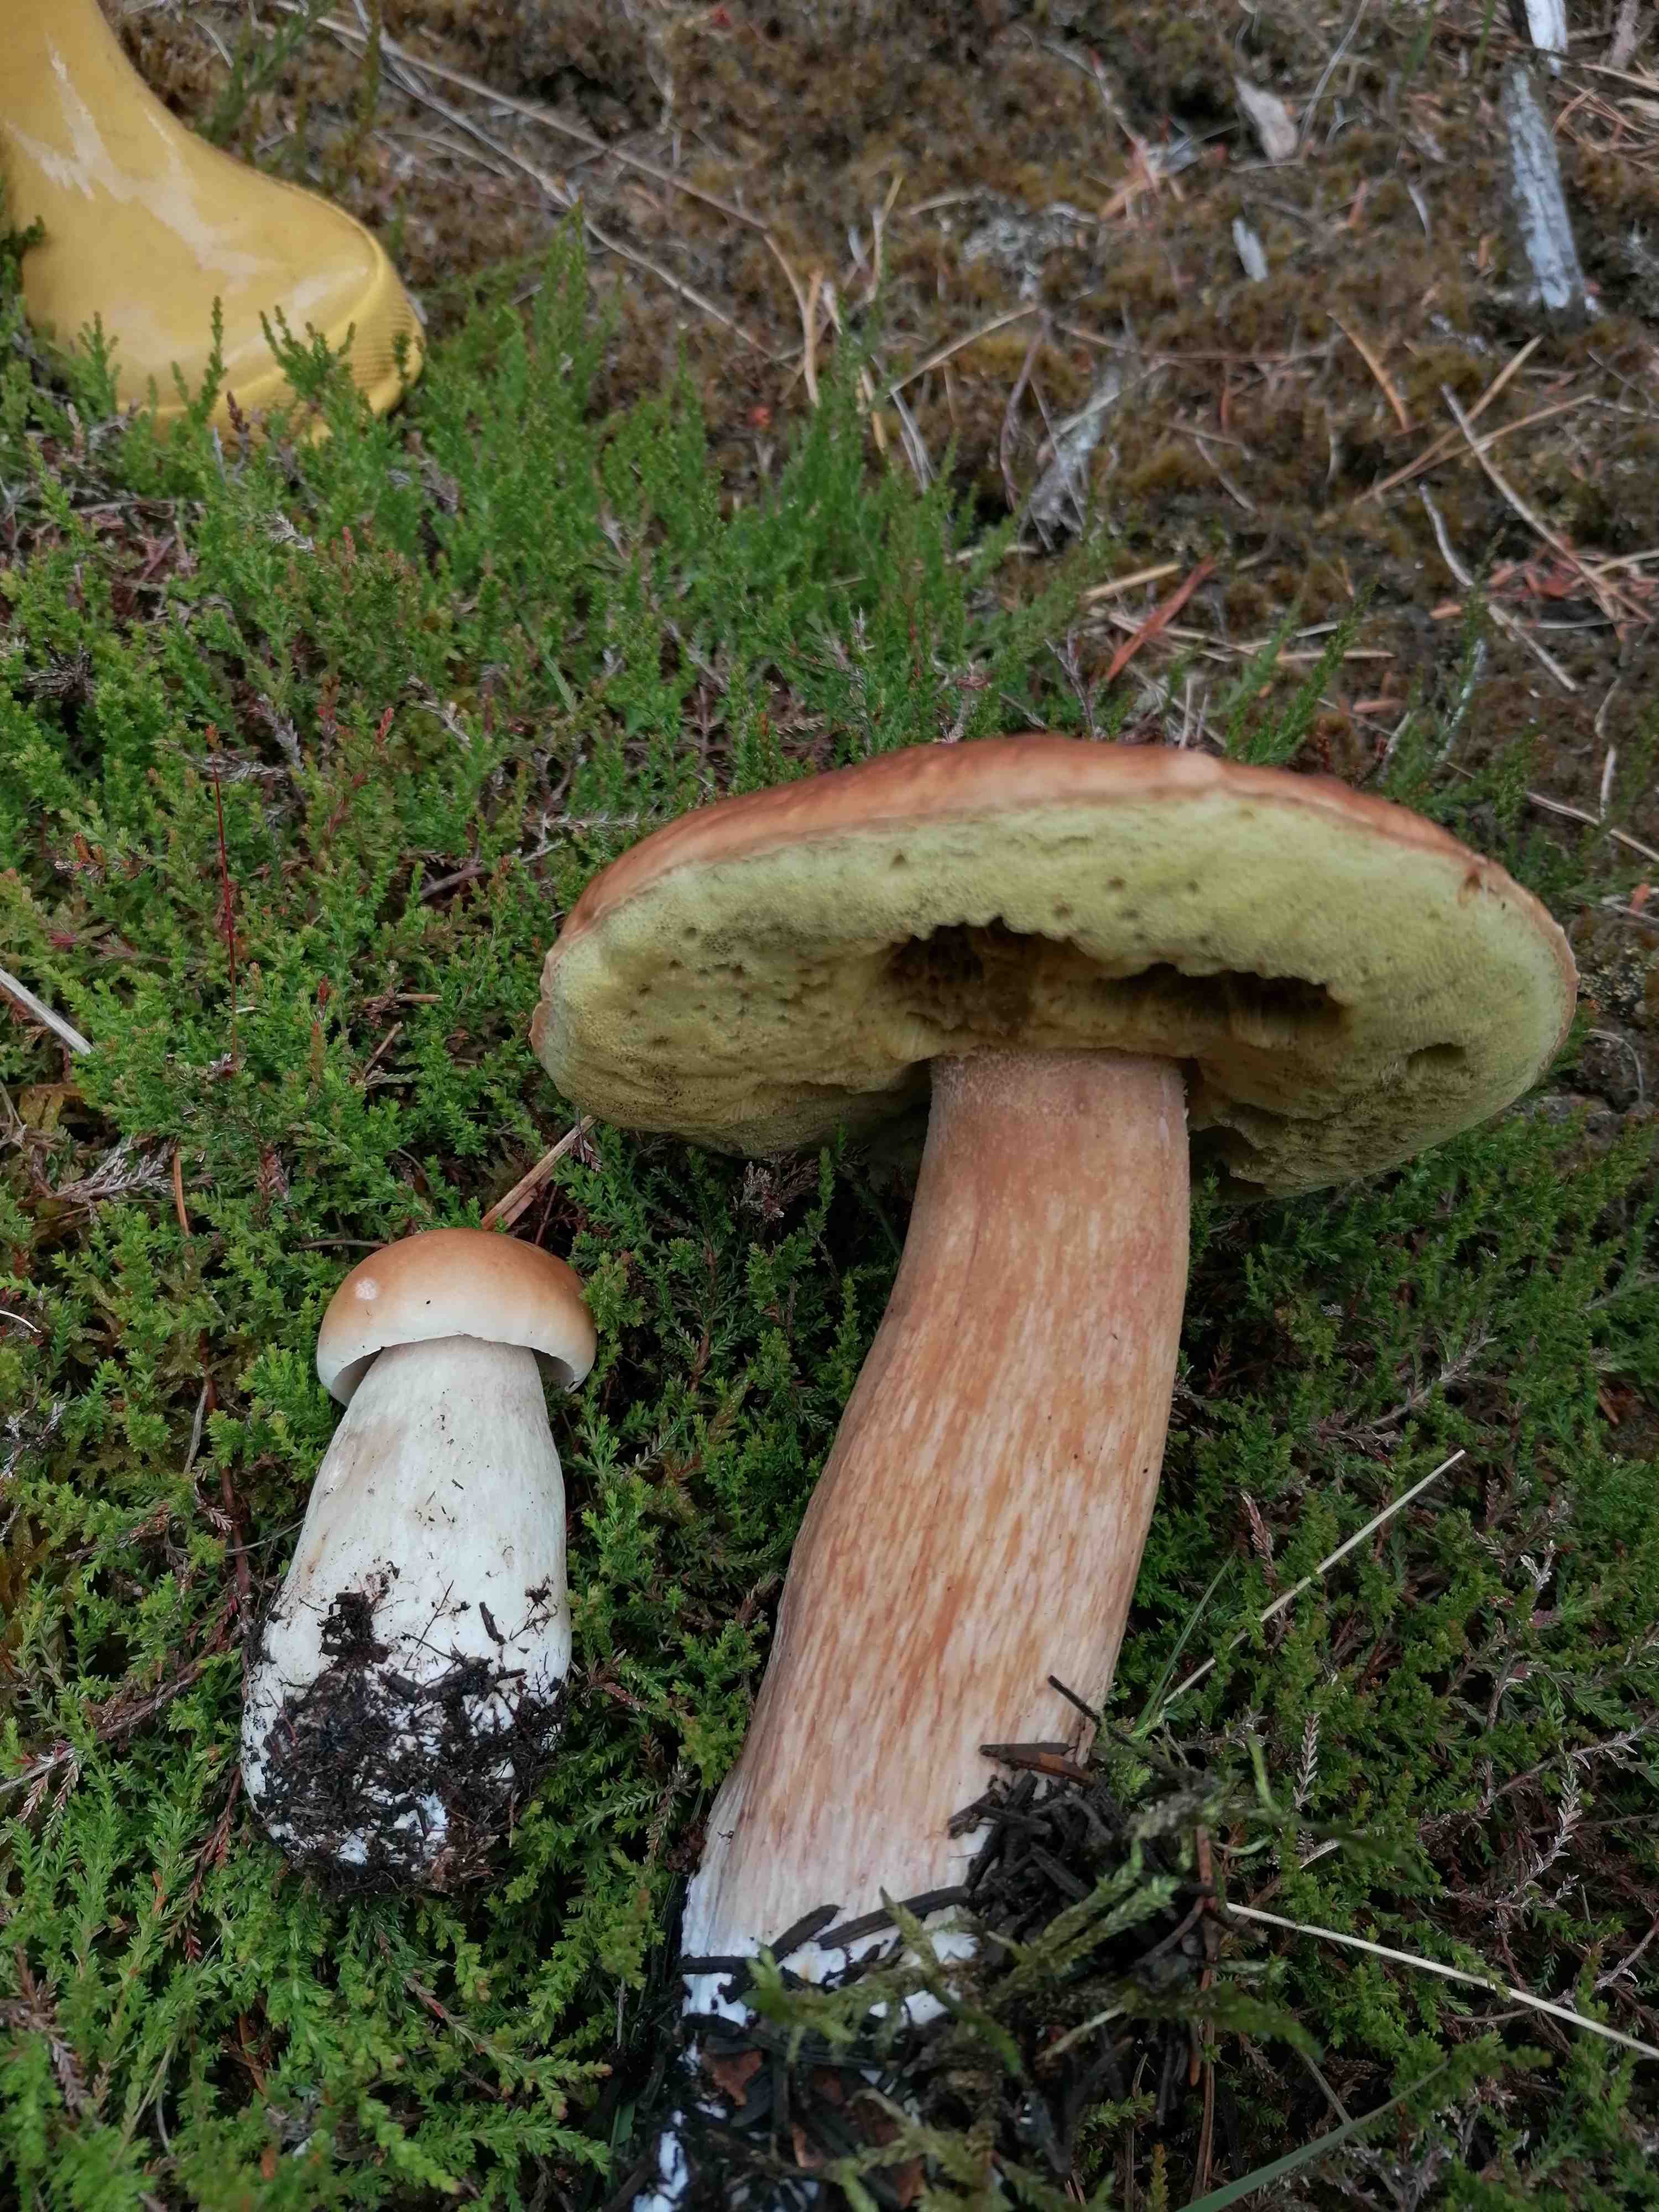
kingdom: Fungi
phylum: Basidiomycota
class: Agaricomycetes
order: Boletales
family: Boletaceae
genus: Boletus
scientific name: Boletus edulis
